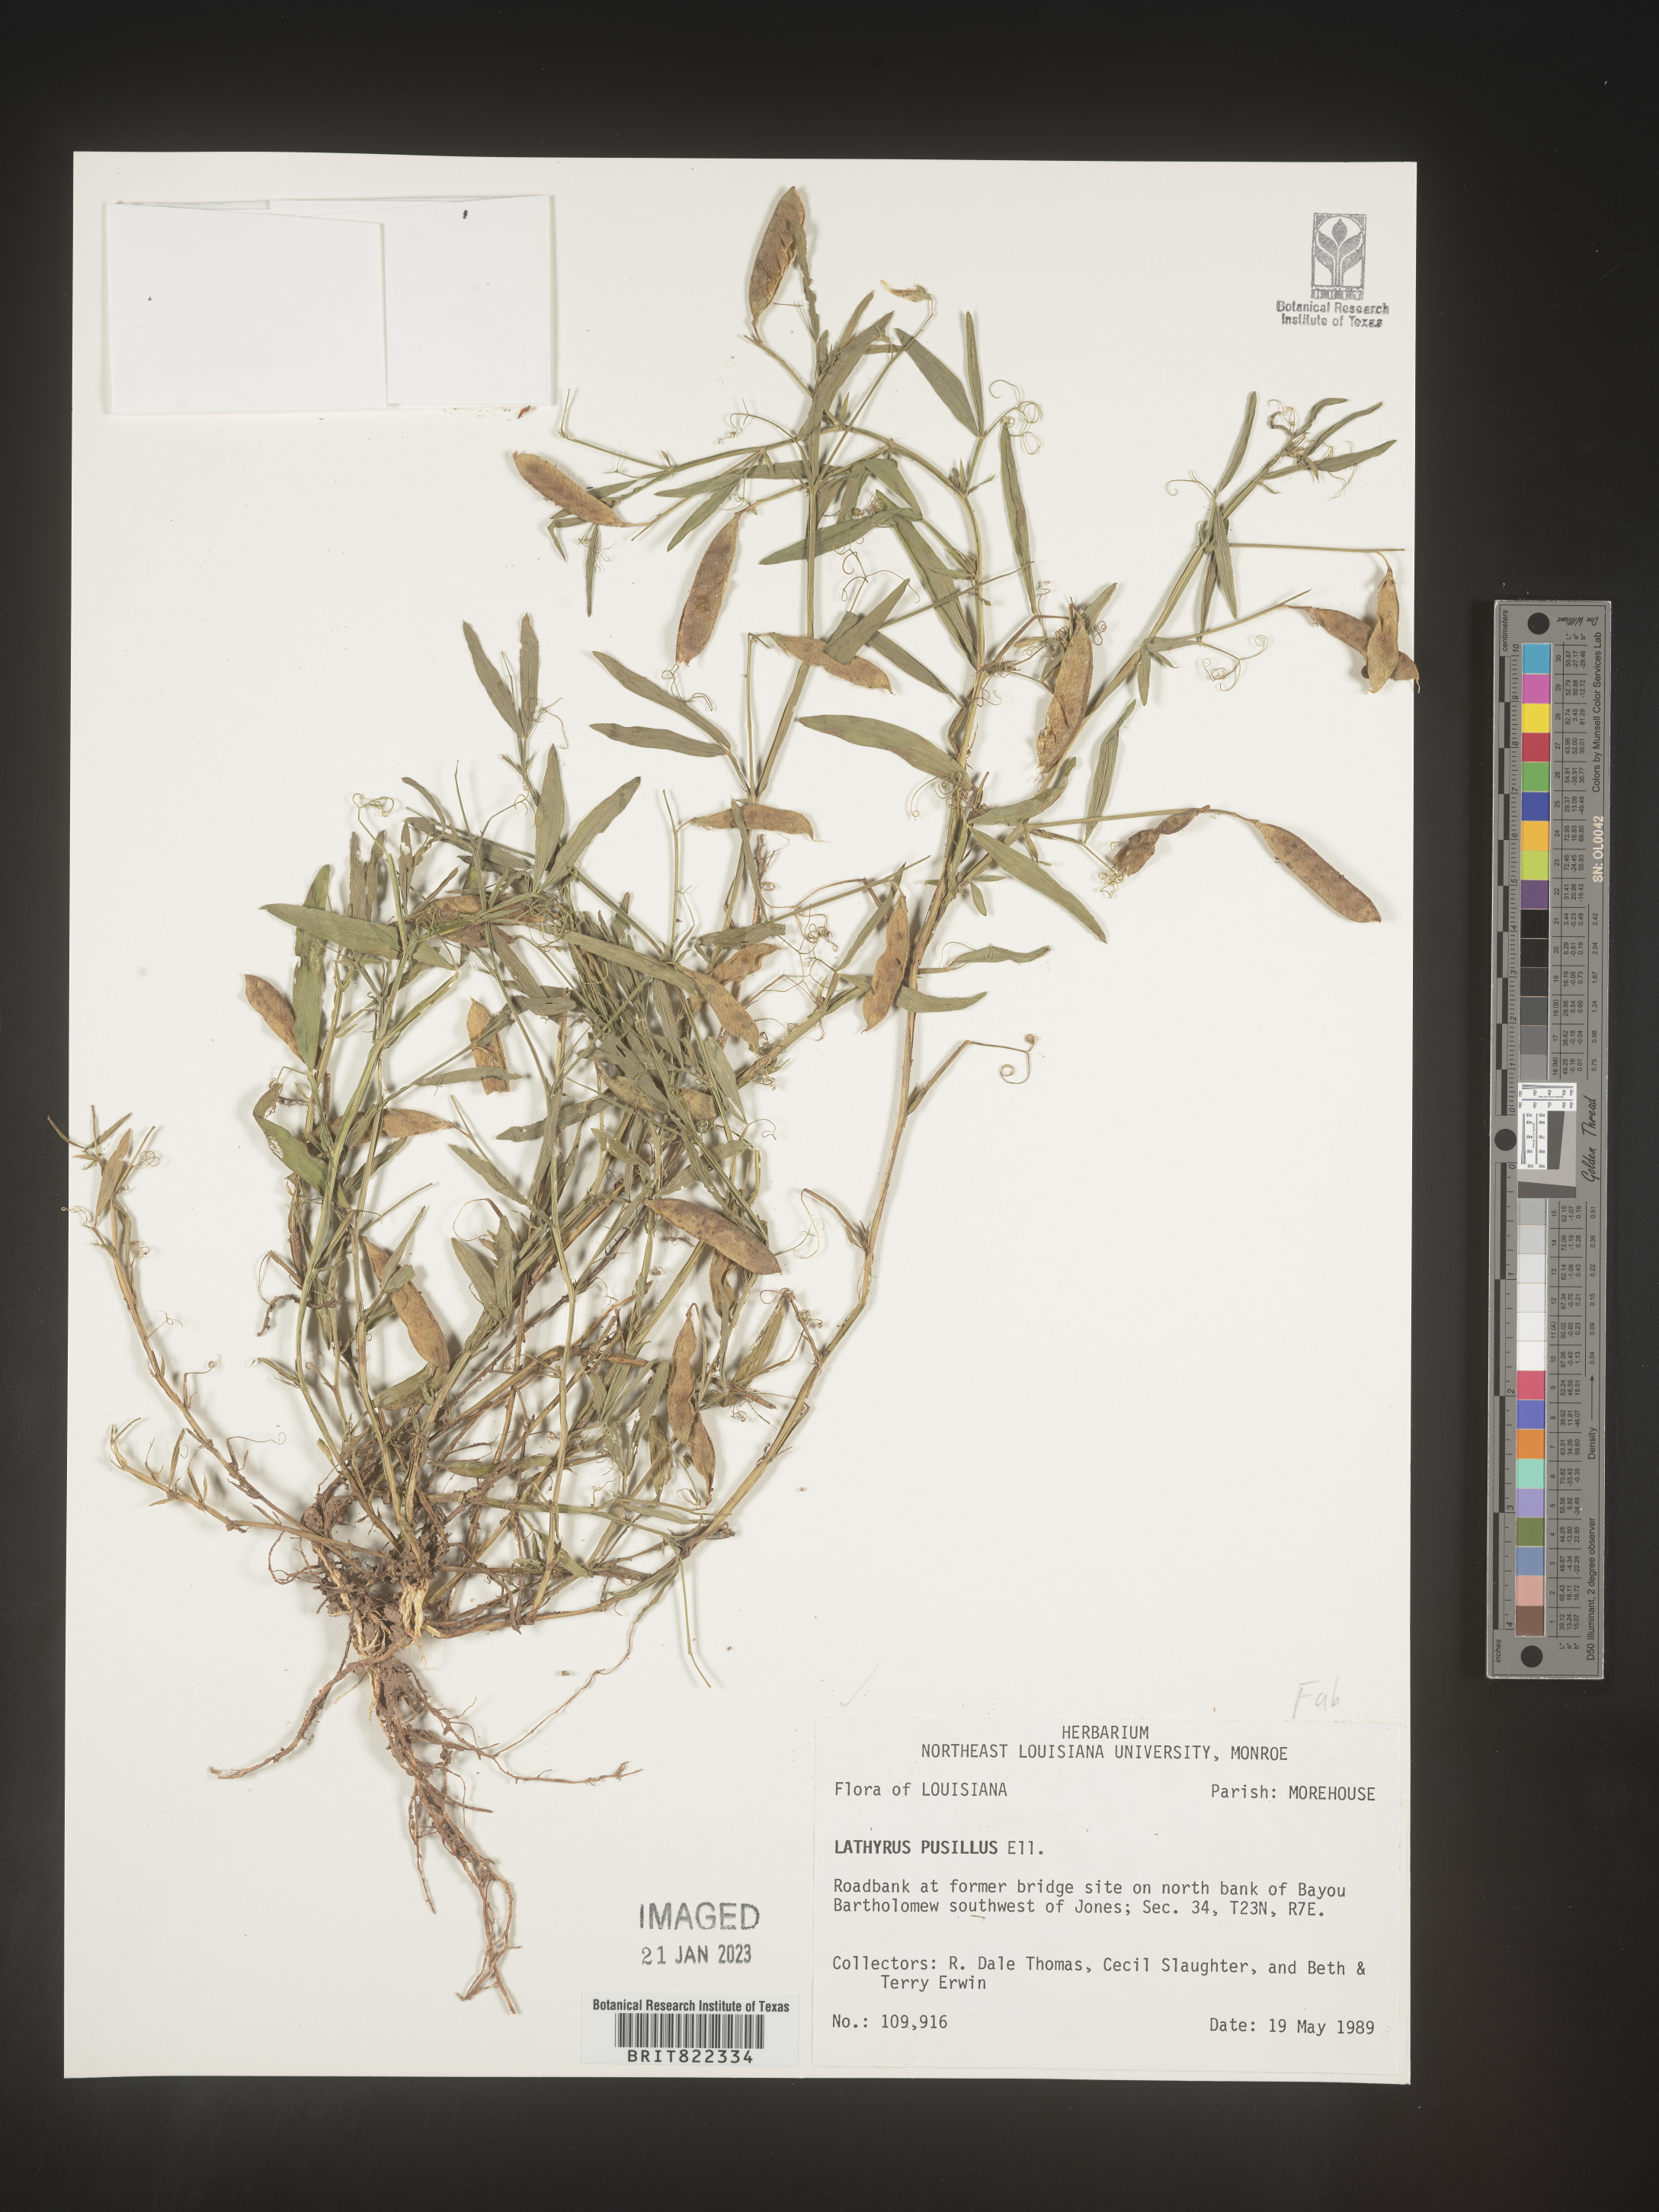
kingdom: Plantae
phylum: Tracheophyta
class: Magnoliopsida
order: Fabales
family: Fabaceae
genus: Lathyrus
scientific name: Lathyrus
